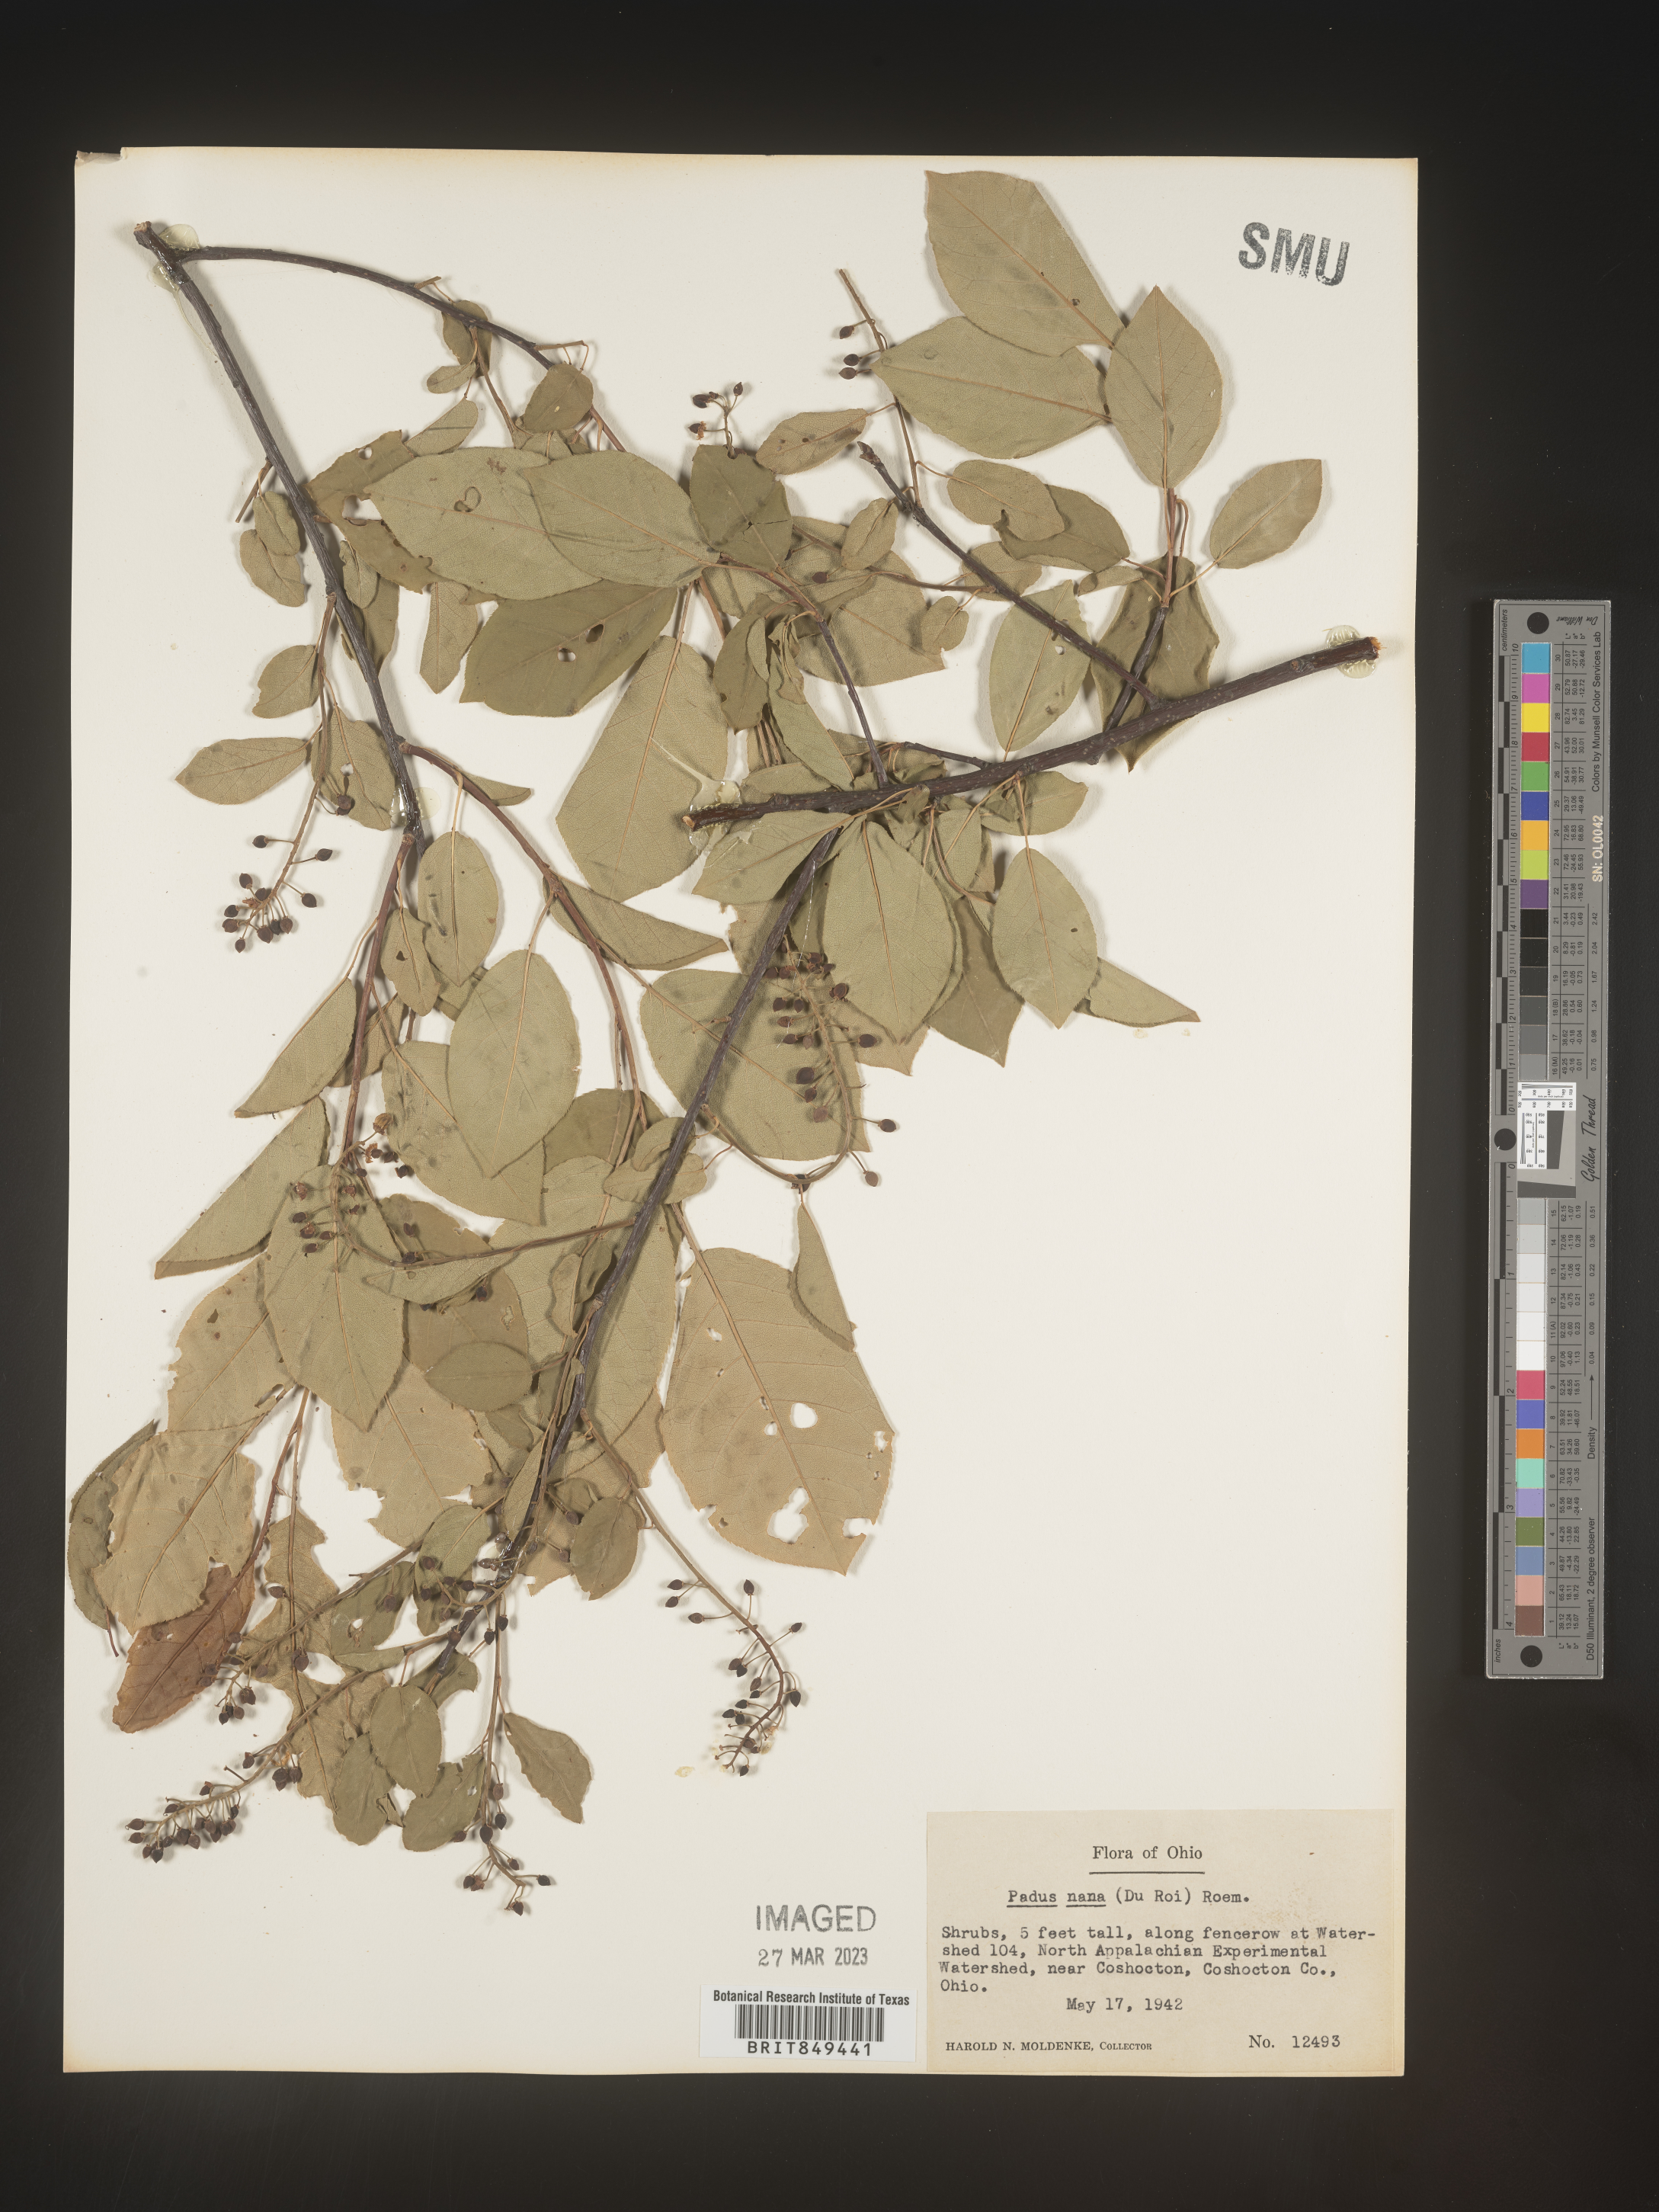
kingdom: Plantae
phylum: Tracheophyta
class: Magnoliopsida
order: Rosales
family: Rosaceae
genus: Prunus
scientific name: Prunus munsoniana
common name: Creek plum
